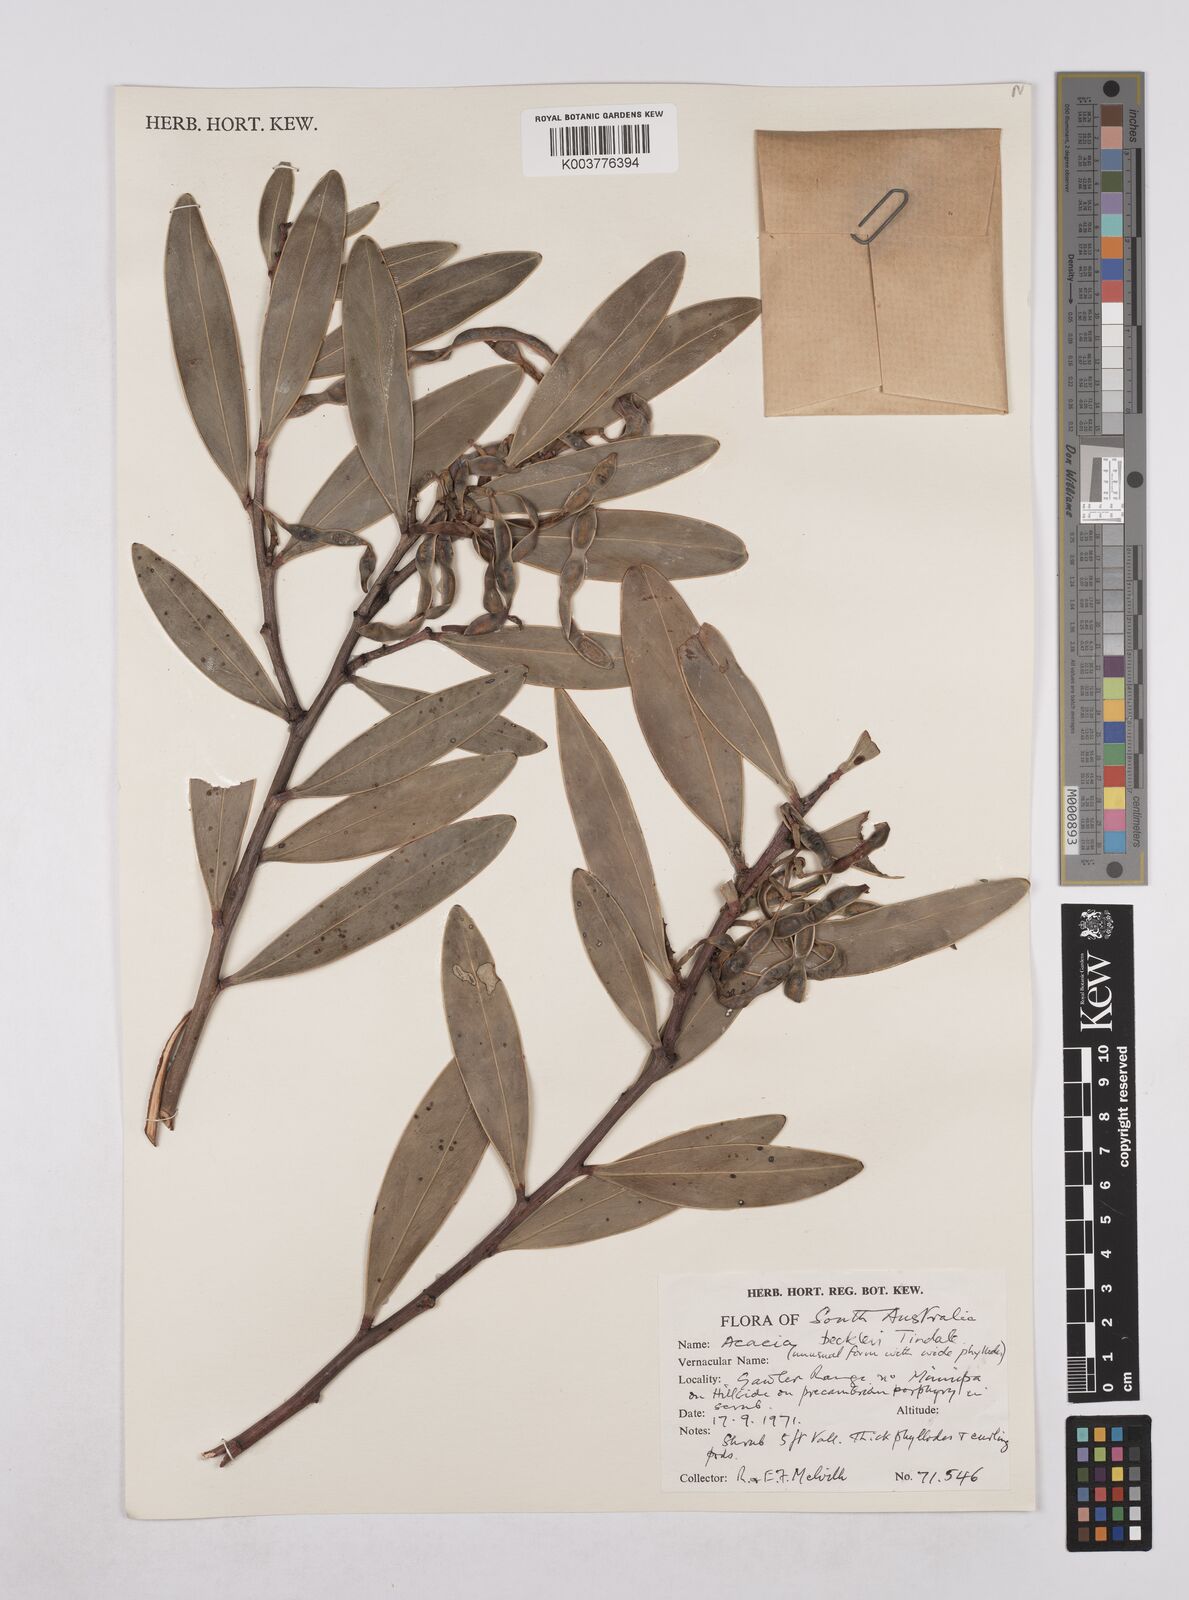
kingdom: Plantae
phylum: Tracheophyta
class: Magnoliopsida
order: Fabales
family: Fabaceae
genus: Acacia
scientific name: Acacia beckleri
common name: Barrier range wattle
